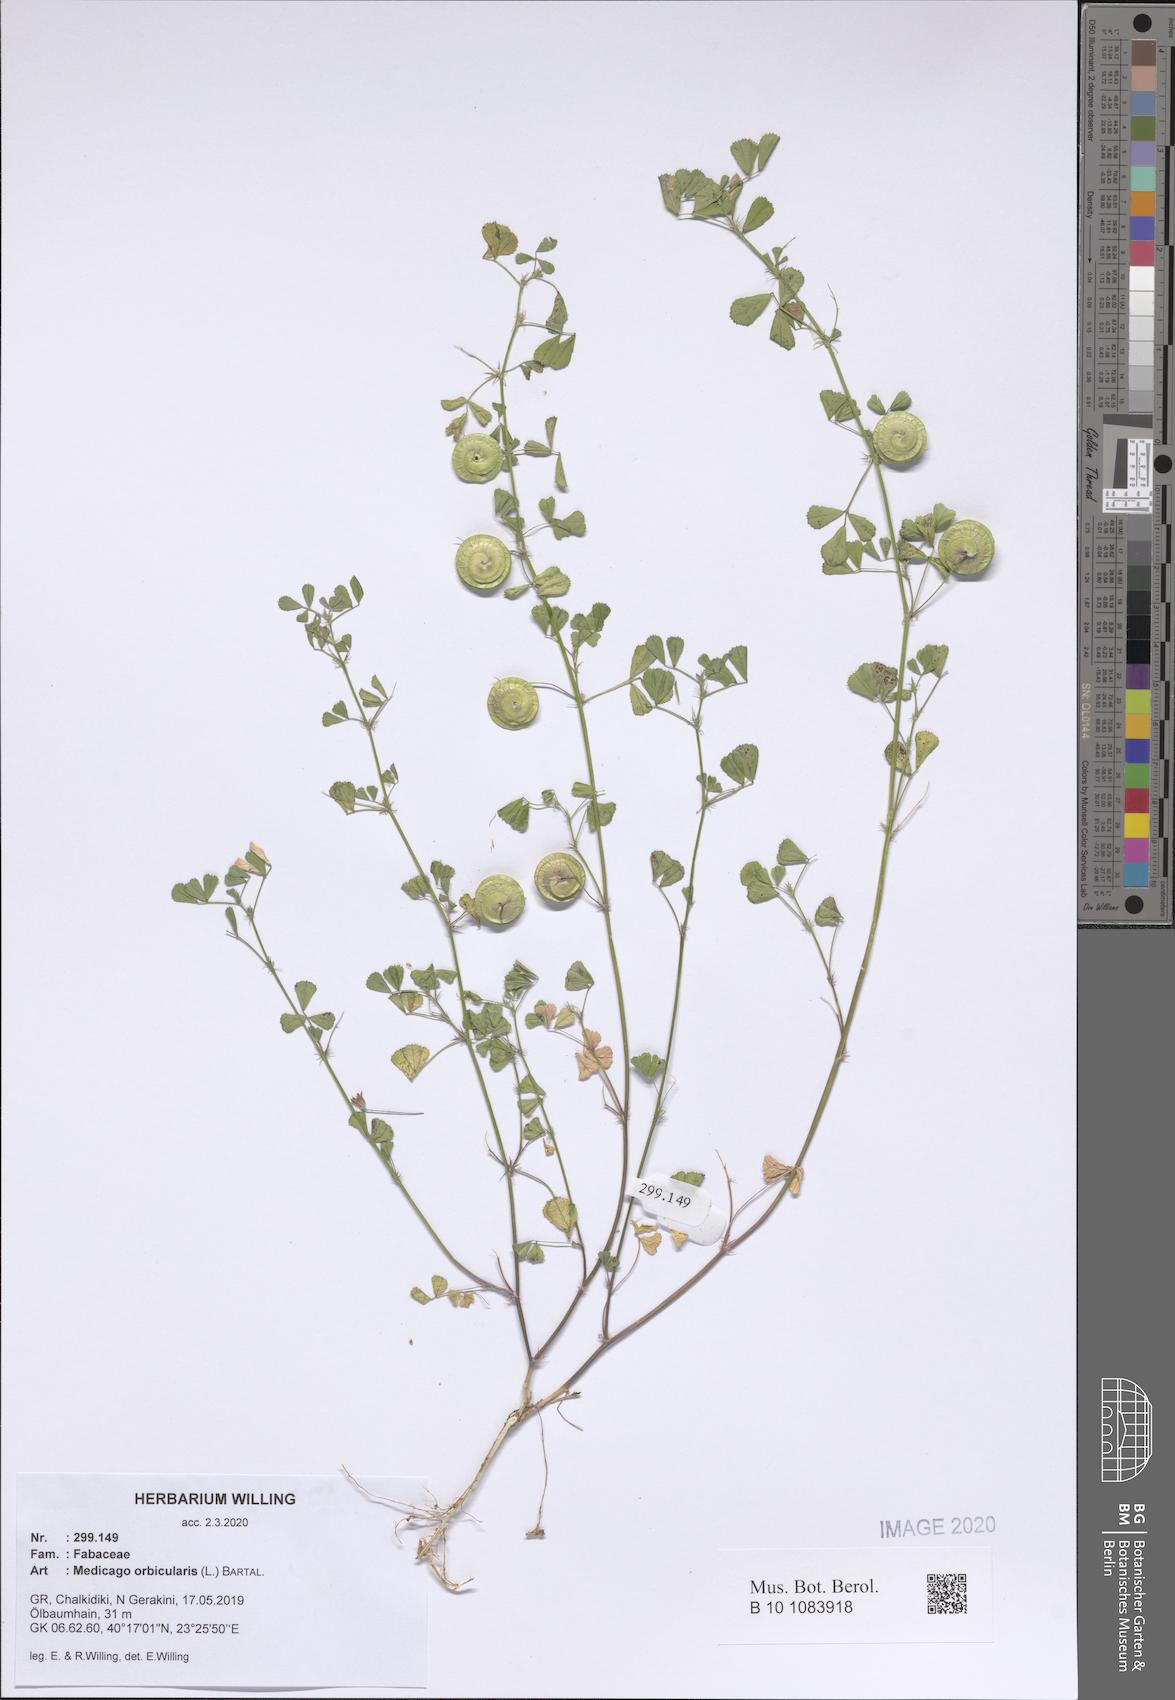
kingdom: Plantae
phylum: Tracheophyta
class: Magnoliopsida
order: Fabales
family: Fabaceae
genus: Medicago
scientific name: Medicago orbicularis
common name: Button medick
